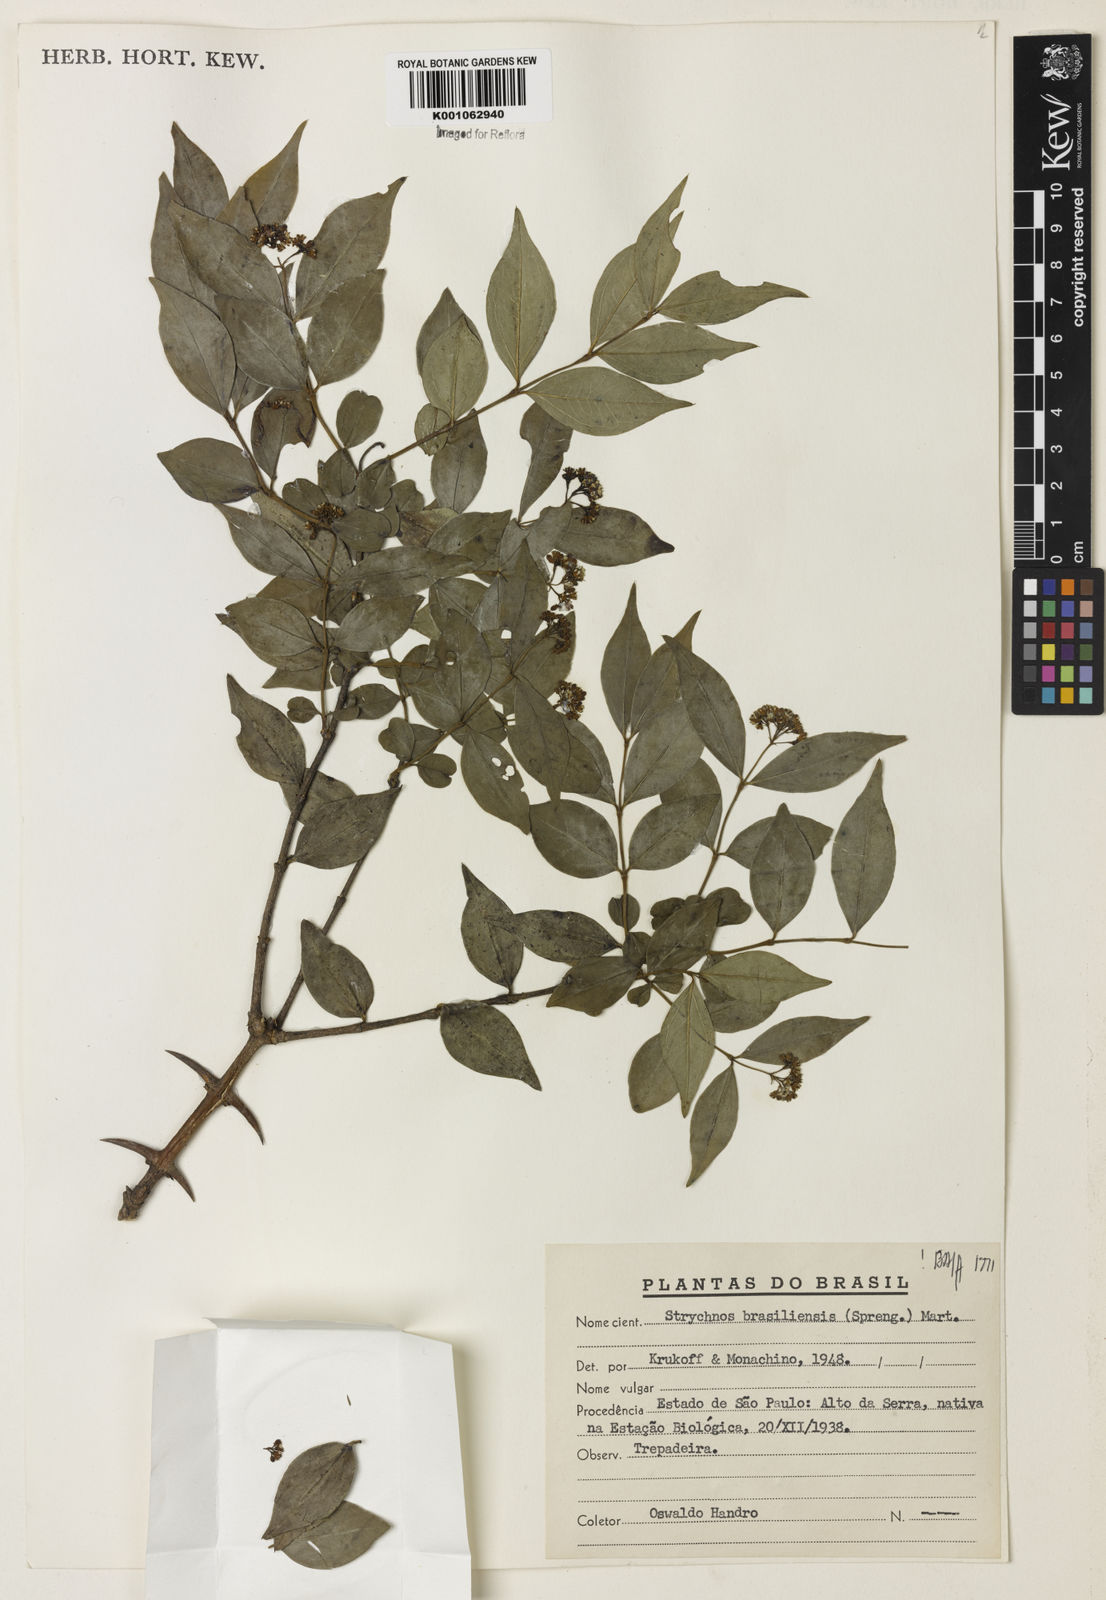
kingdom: Plantae
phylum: Tracheophyta
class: Magnoliopsida
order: Gentianales
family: Loganiaceae
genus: Strychnos
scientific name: Strychnos brasiliensis
